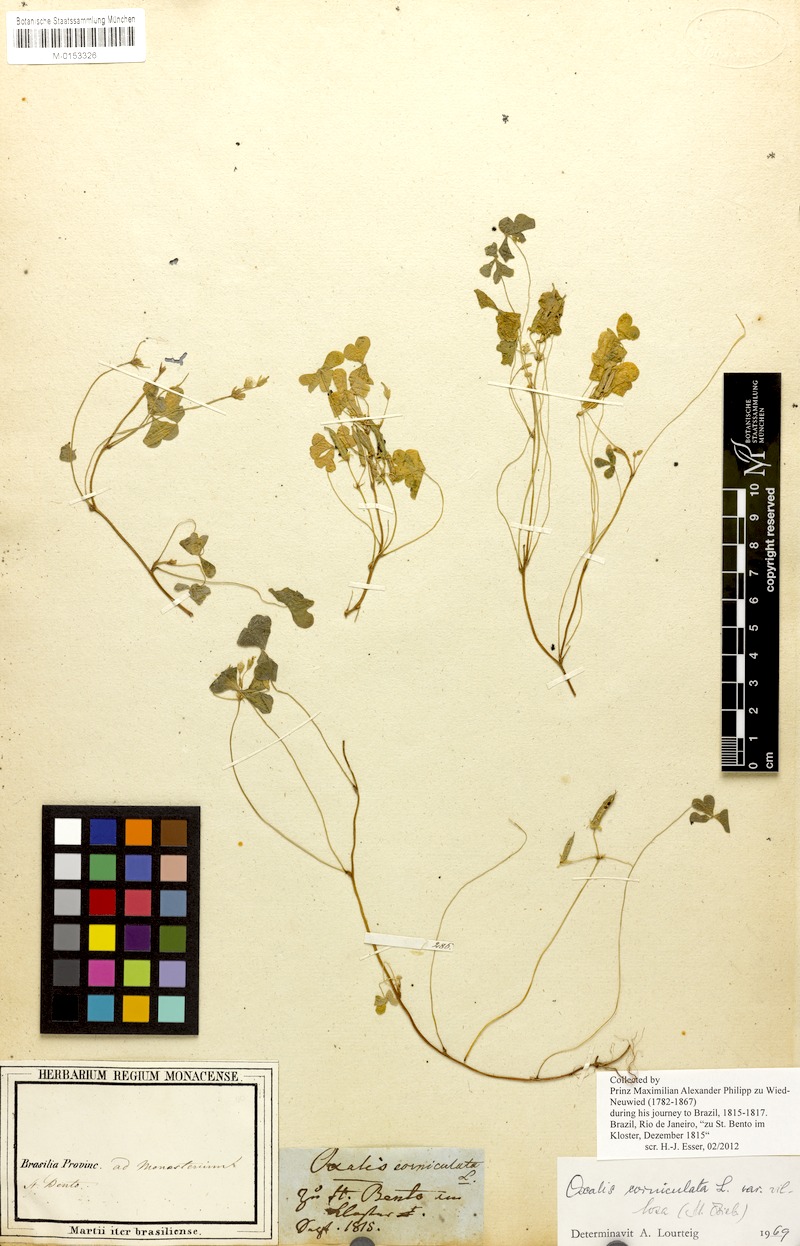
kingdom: Plantae
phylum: Tracheophyta
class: Magnoliopsida
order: Oxalidales
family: Oxalidaceae
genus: Oxalis
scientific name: Oxalis corniculata
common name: Procumbent yellow-sorrel
